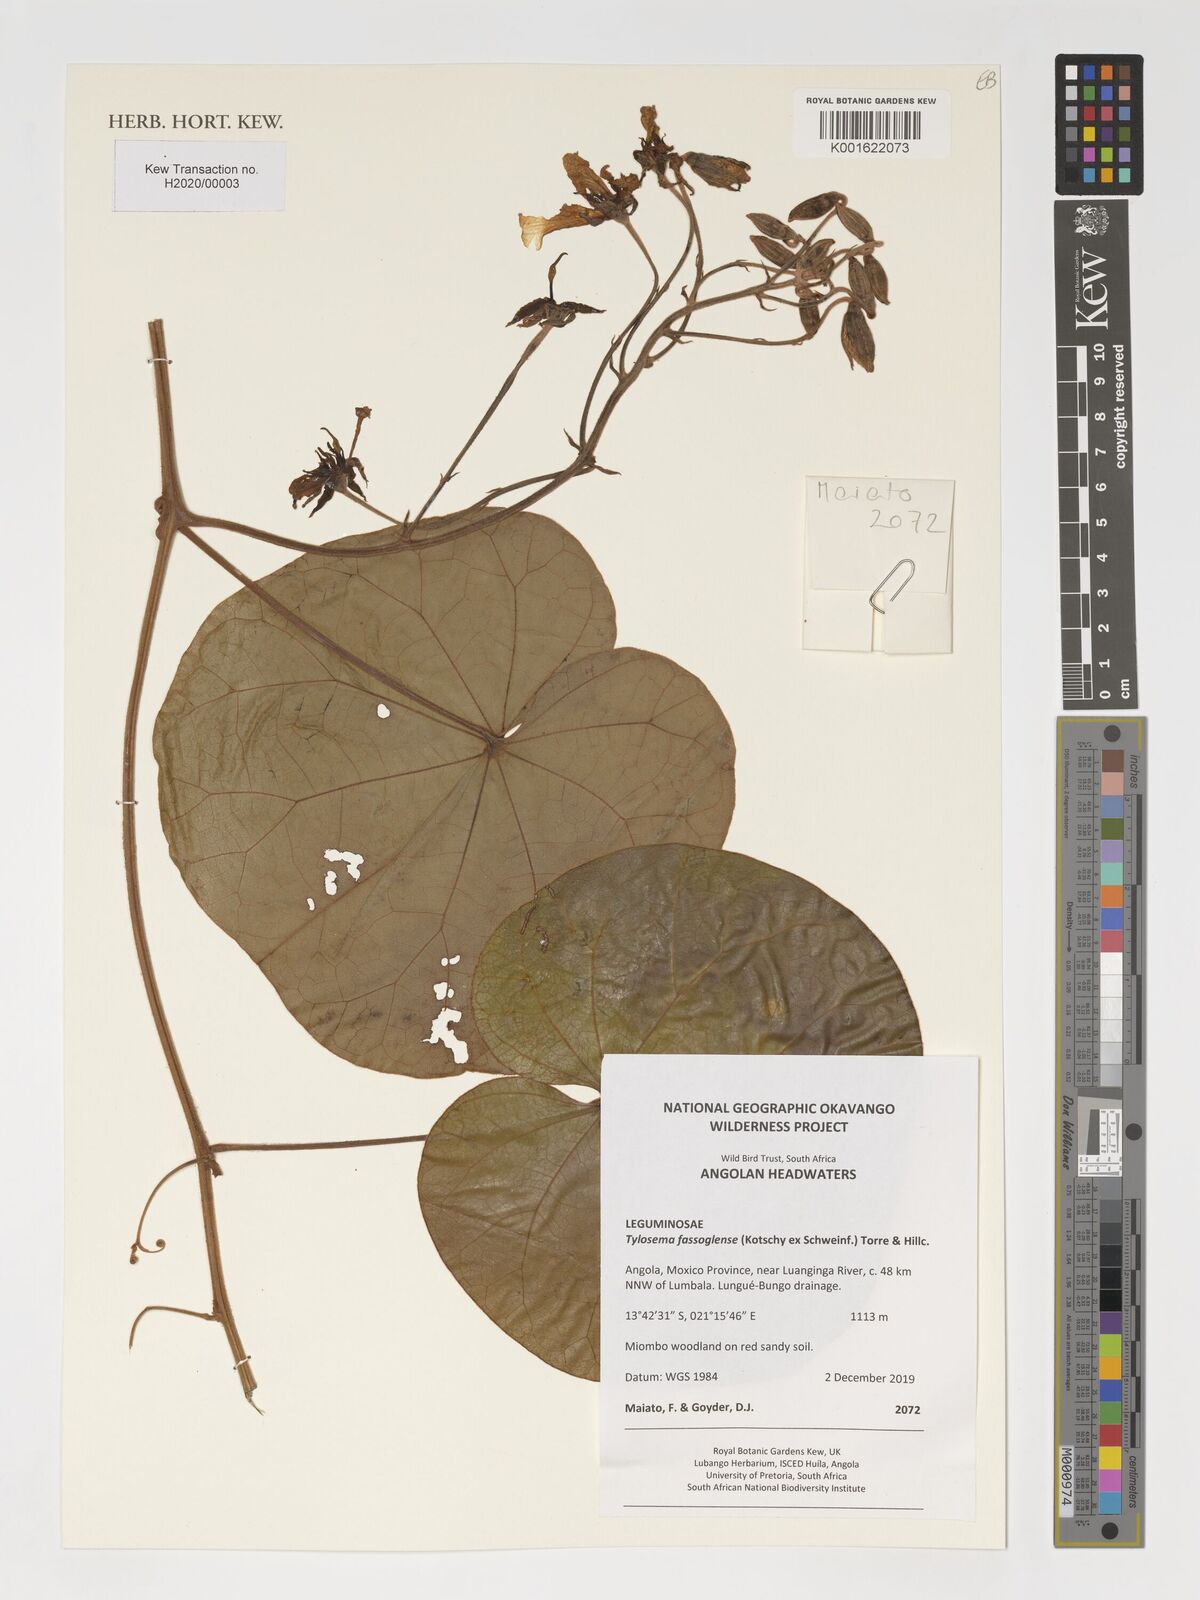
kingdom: Plantae
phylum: Tracheophyta
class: Magnoliopsida
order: Fabales
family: Fabaceae
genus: Tylosema
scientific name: Tylosema fassoglense
